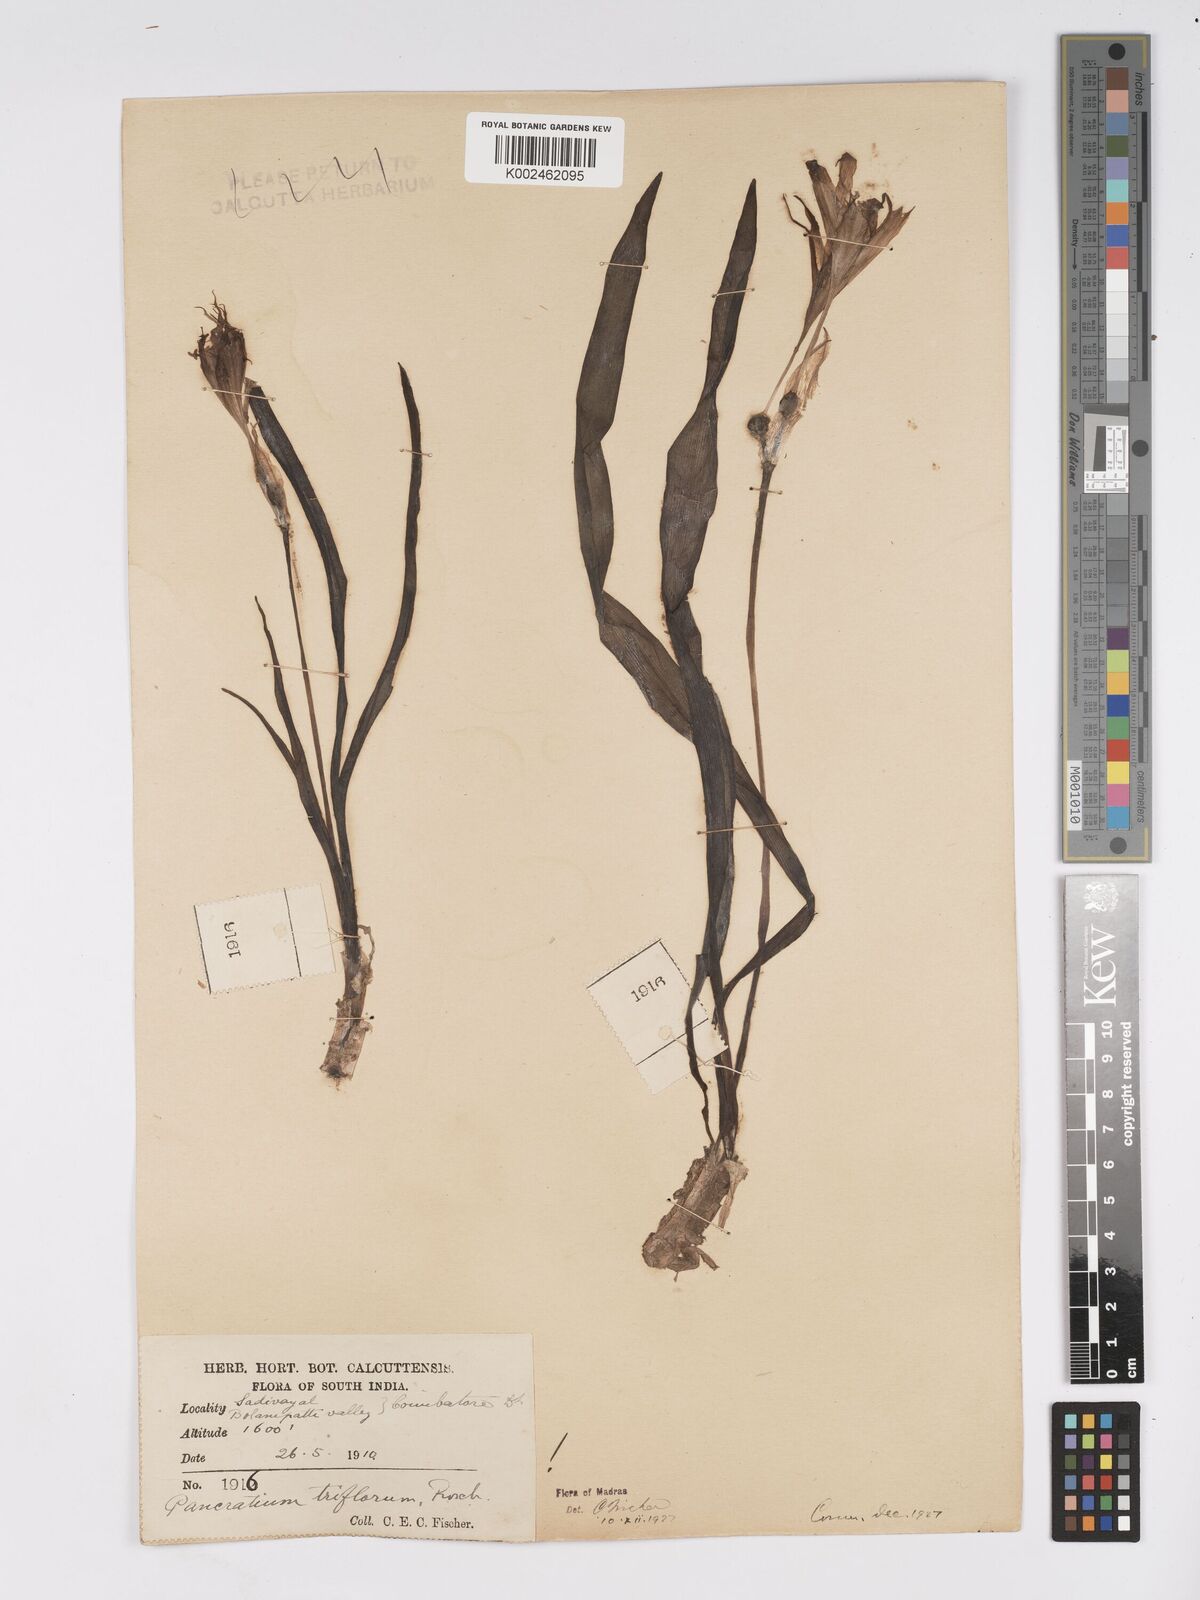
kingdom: Plantae
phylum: Tracheophyta
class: Liliopsida
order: Asparagales
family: Amaryllidaceae
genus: Pancratium
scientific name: Pancratium triflorum
